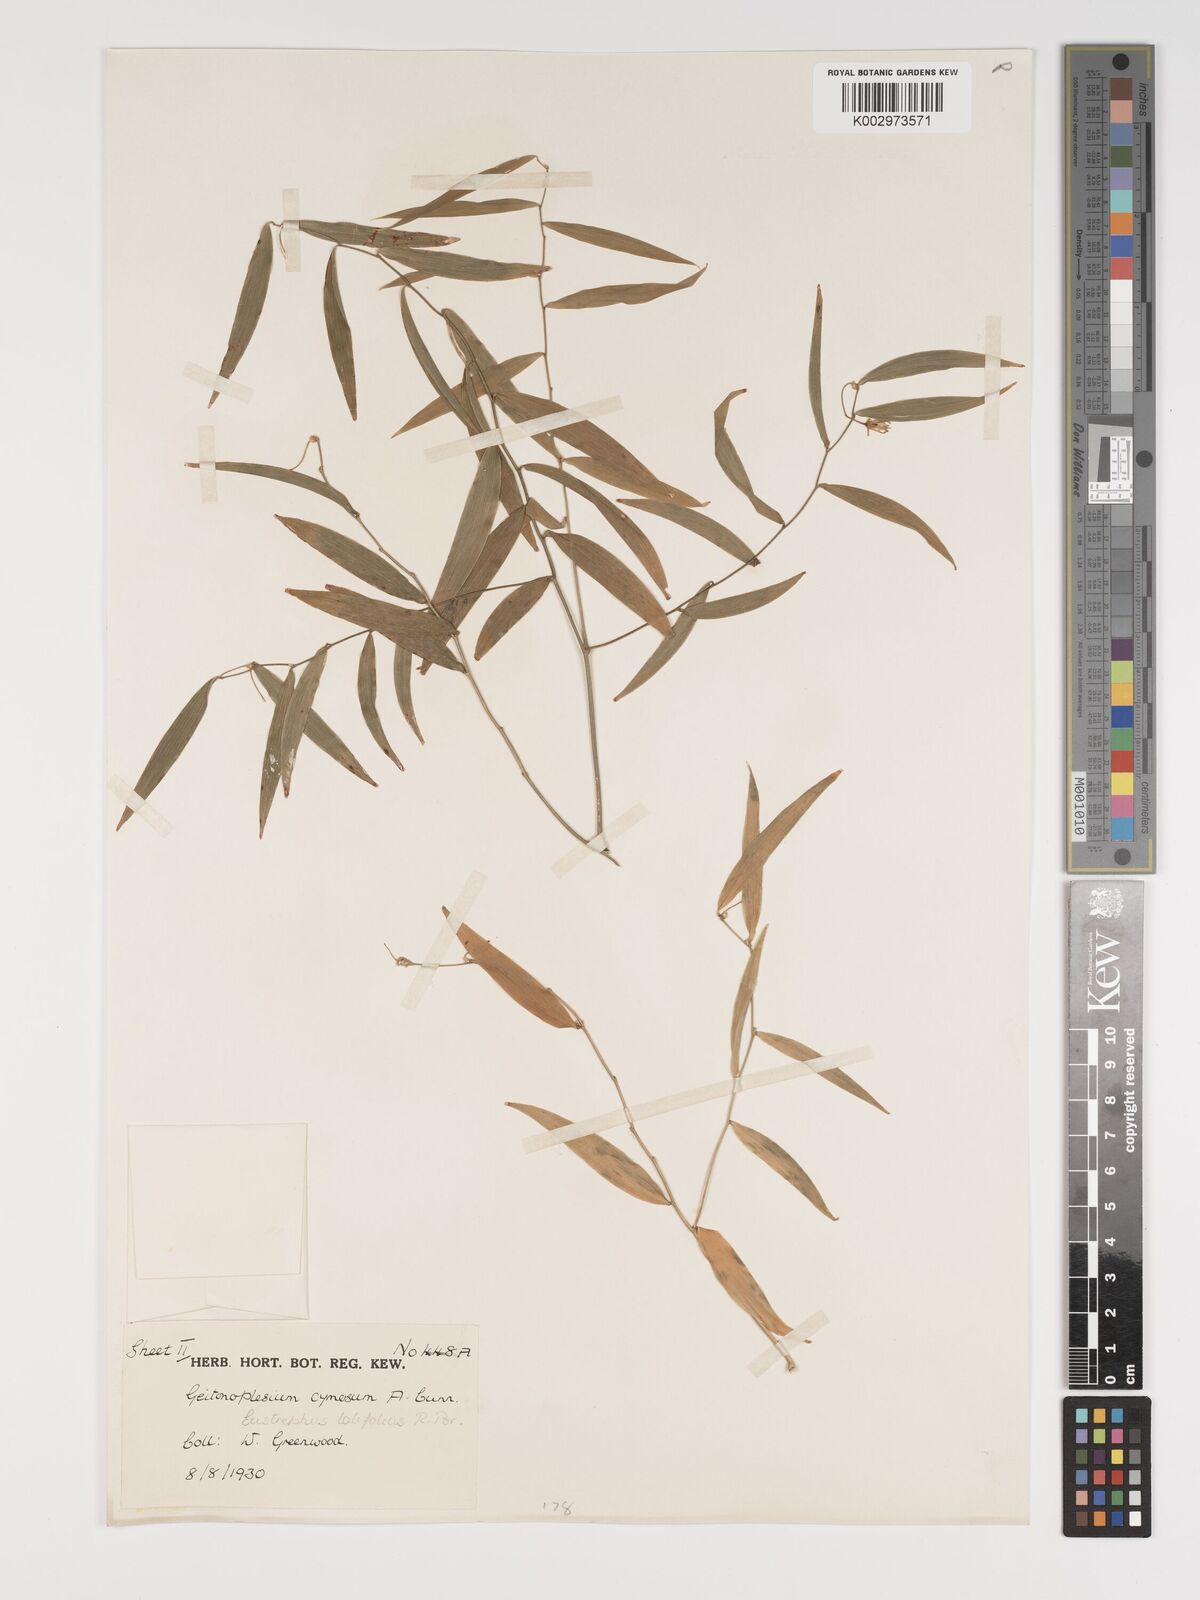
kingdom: Plantae
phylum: Tracheophyta
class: Liliopsida
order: Asparagales
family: Asparagaceae
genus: Eustrephus
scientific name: Eustrephus latifolius
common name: Orangevine
